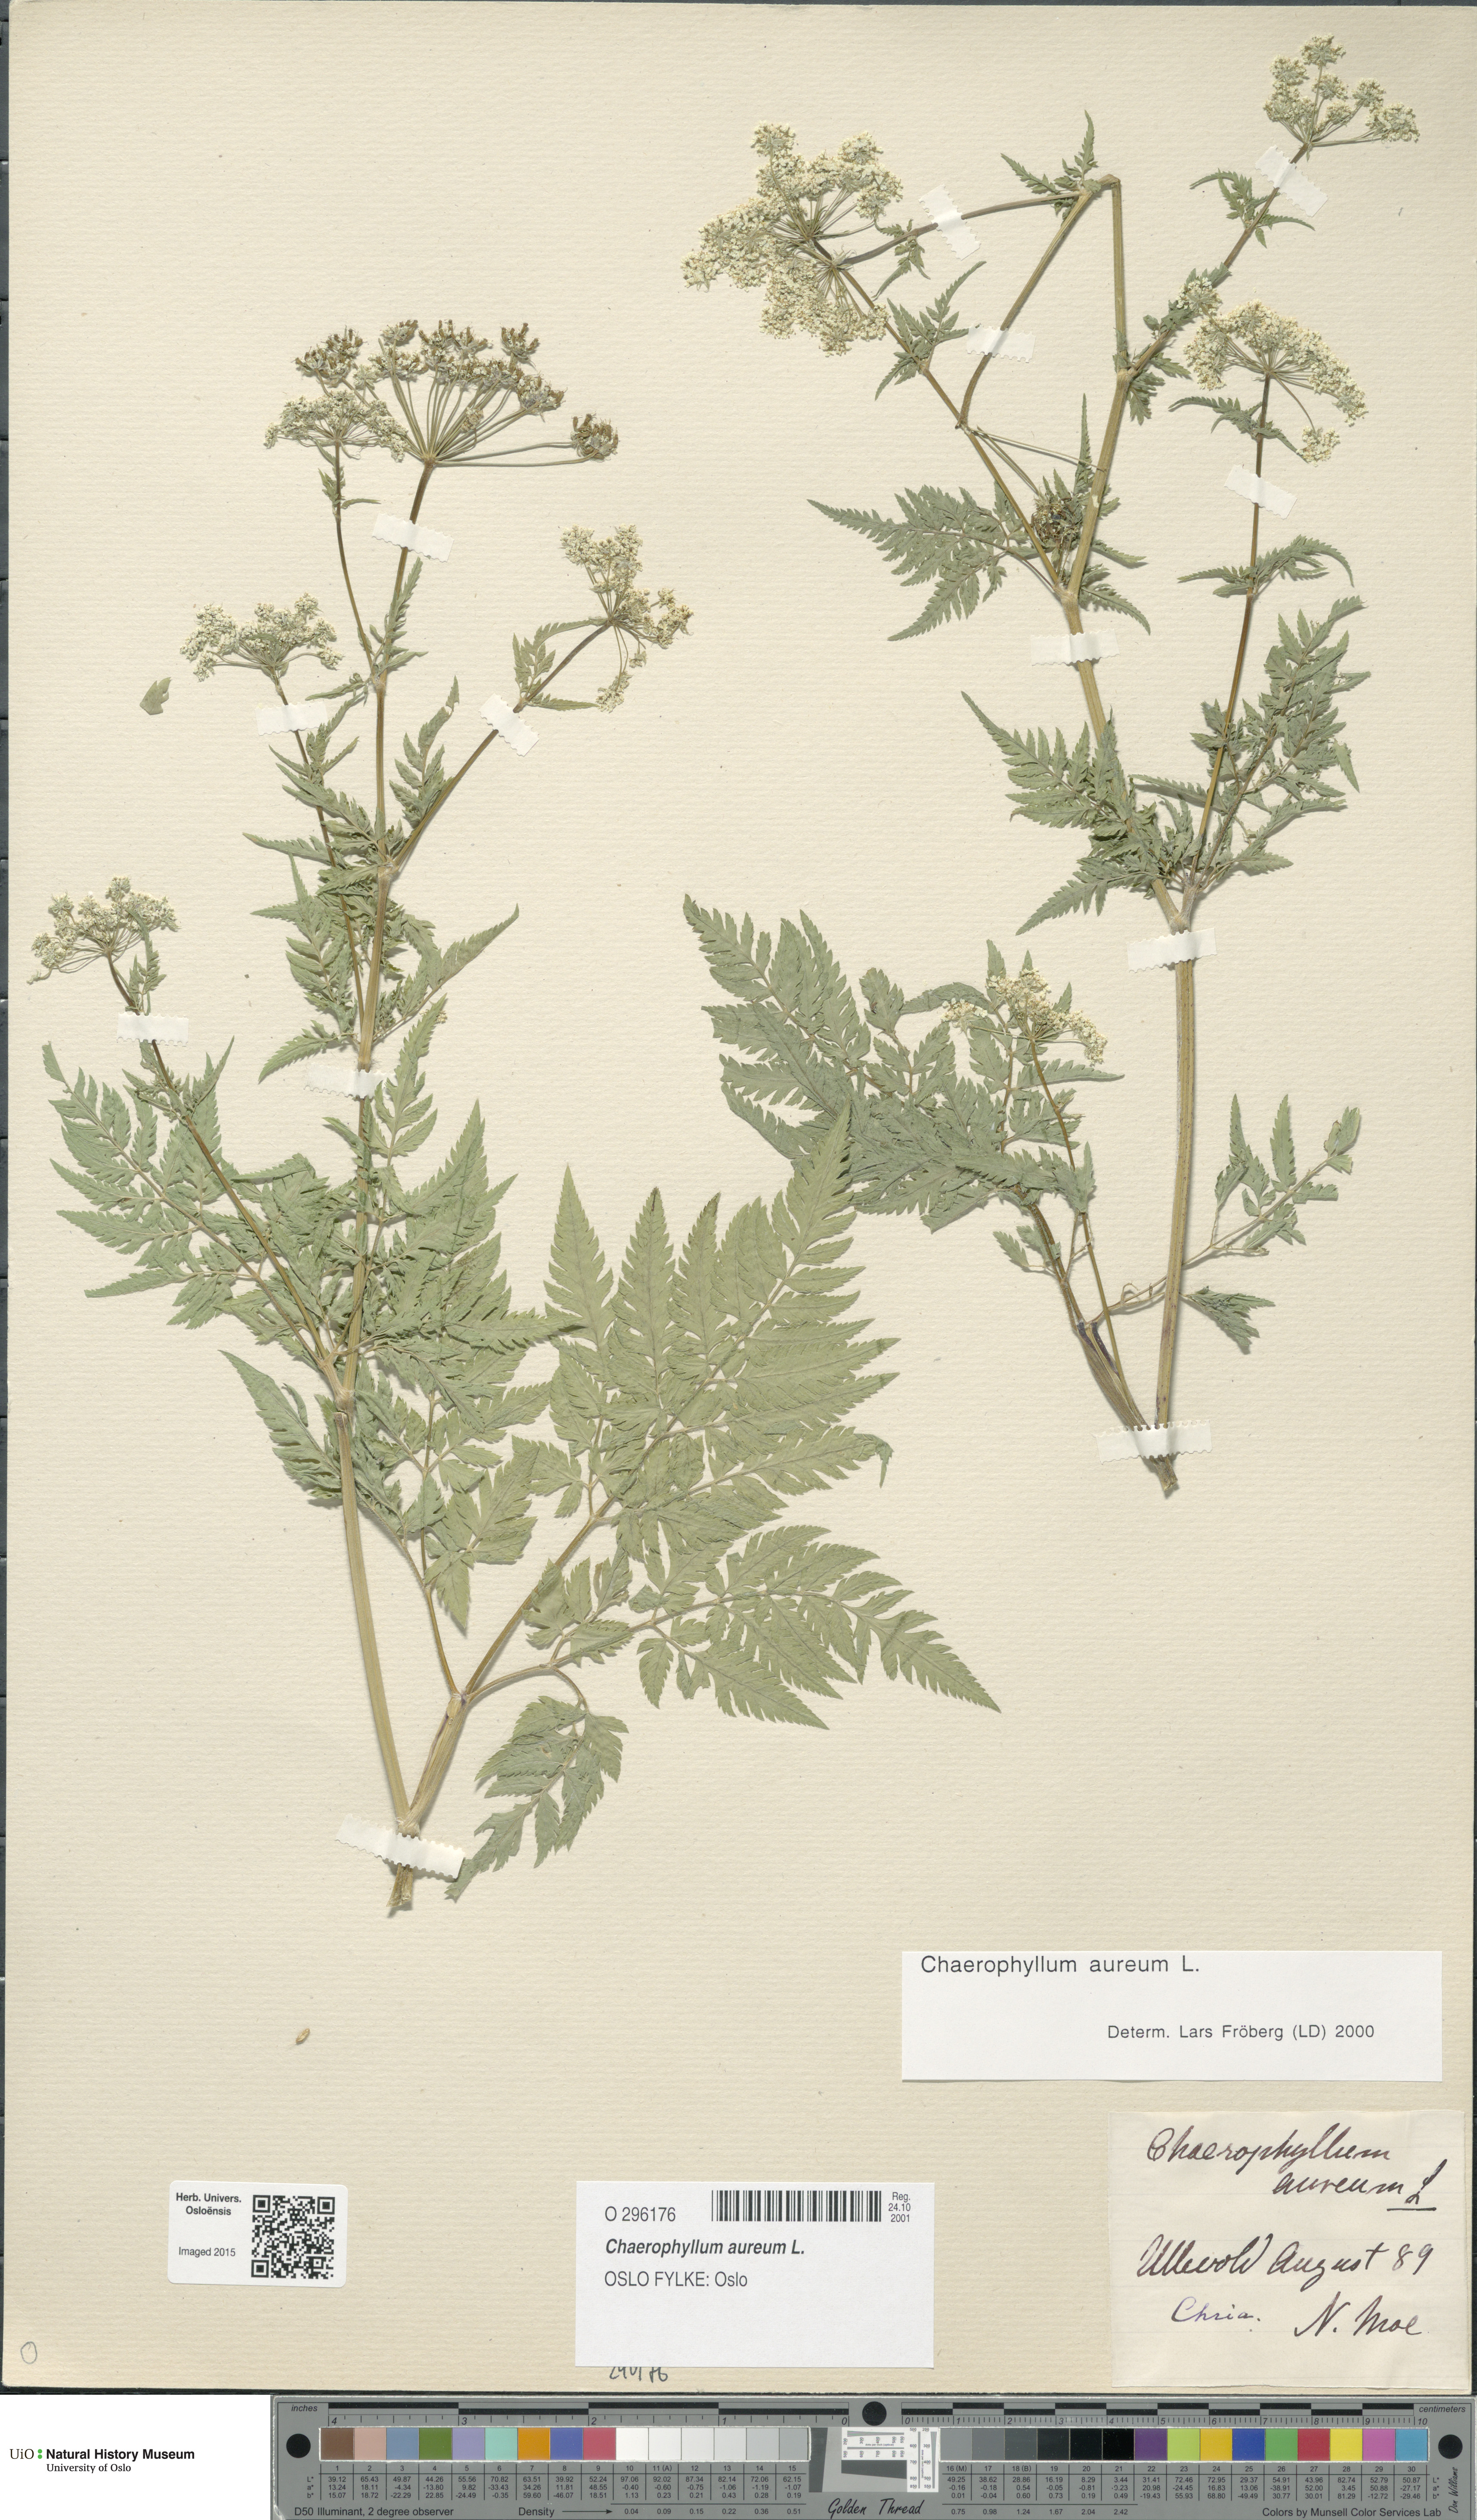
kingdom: Plantae
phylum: Tracheophyta
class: Magnoliopsida
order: Apiales
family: Apiaceae
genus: Chaerophyllum
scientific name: Chaerophyllum aureum
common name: Golden chervil
